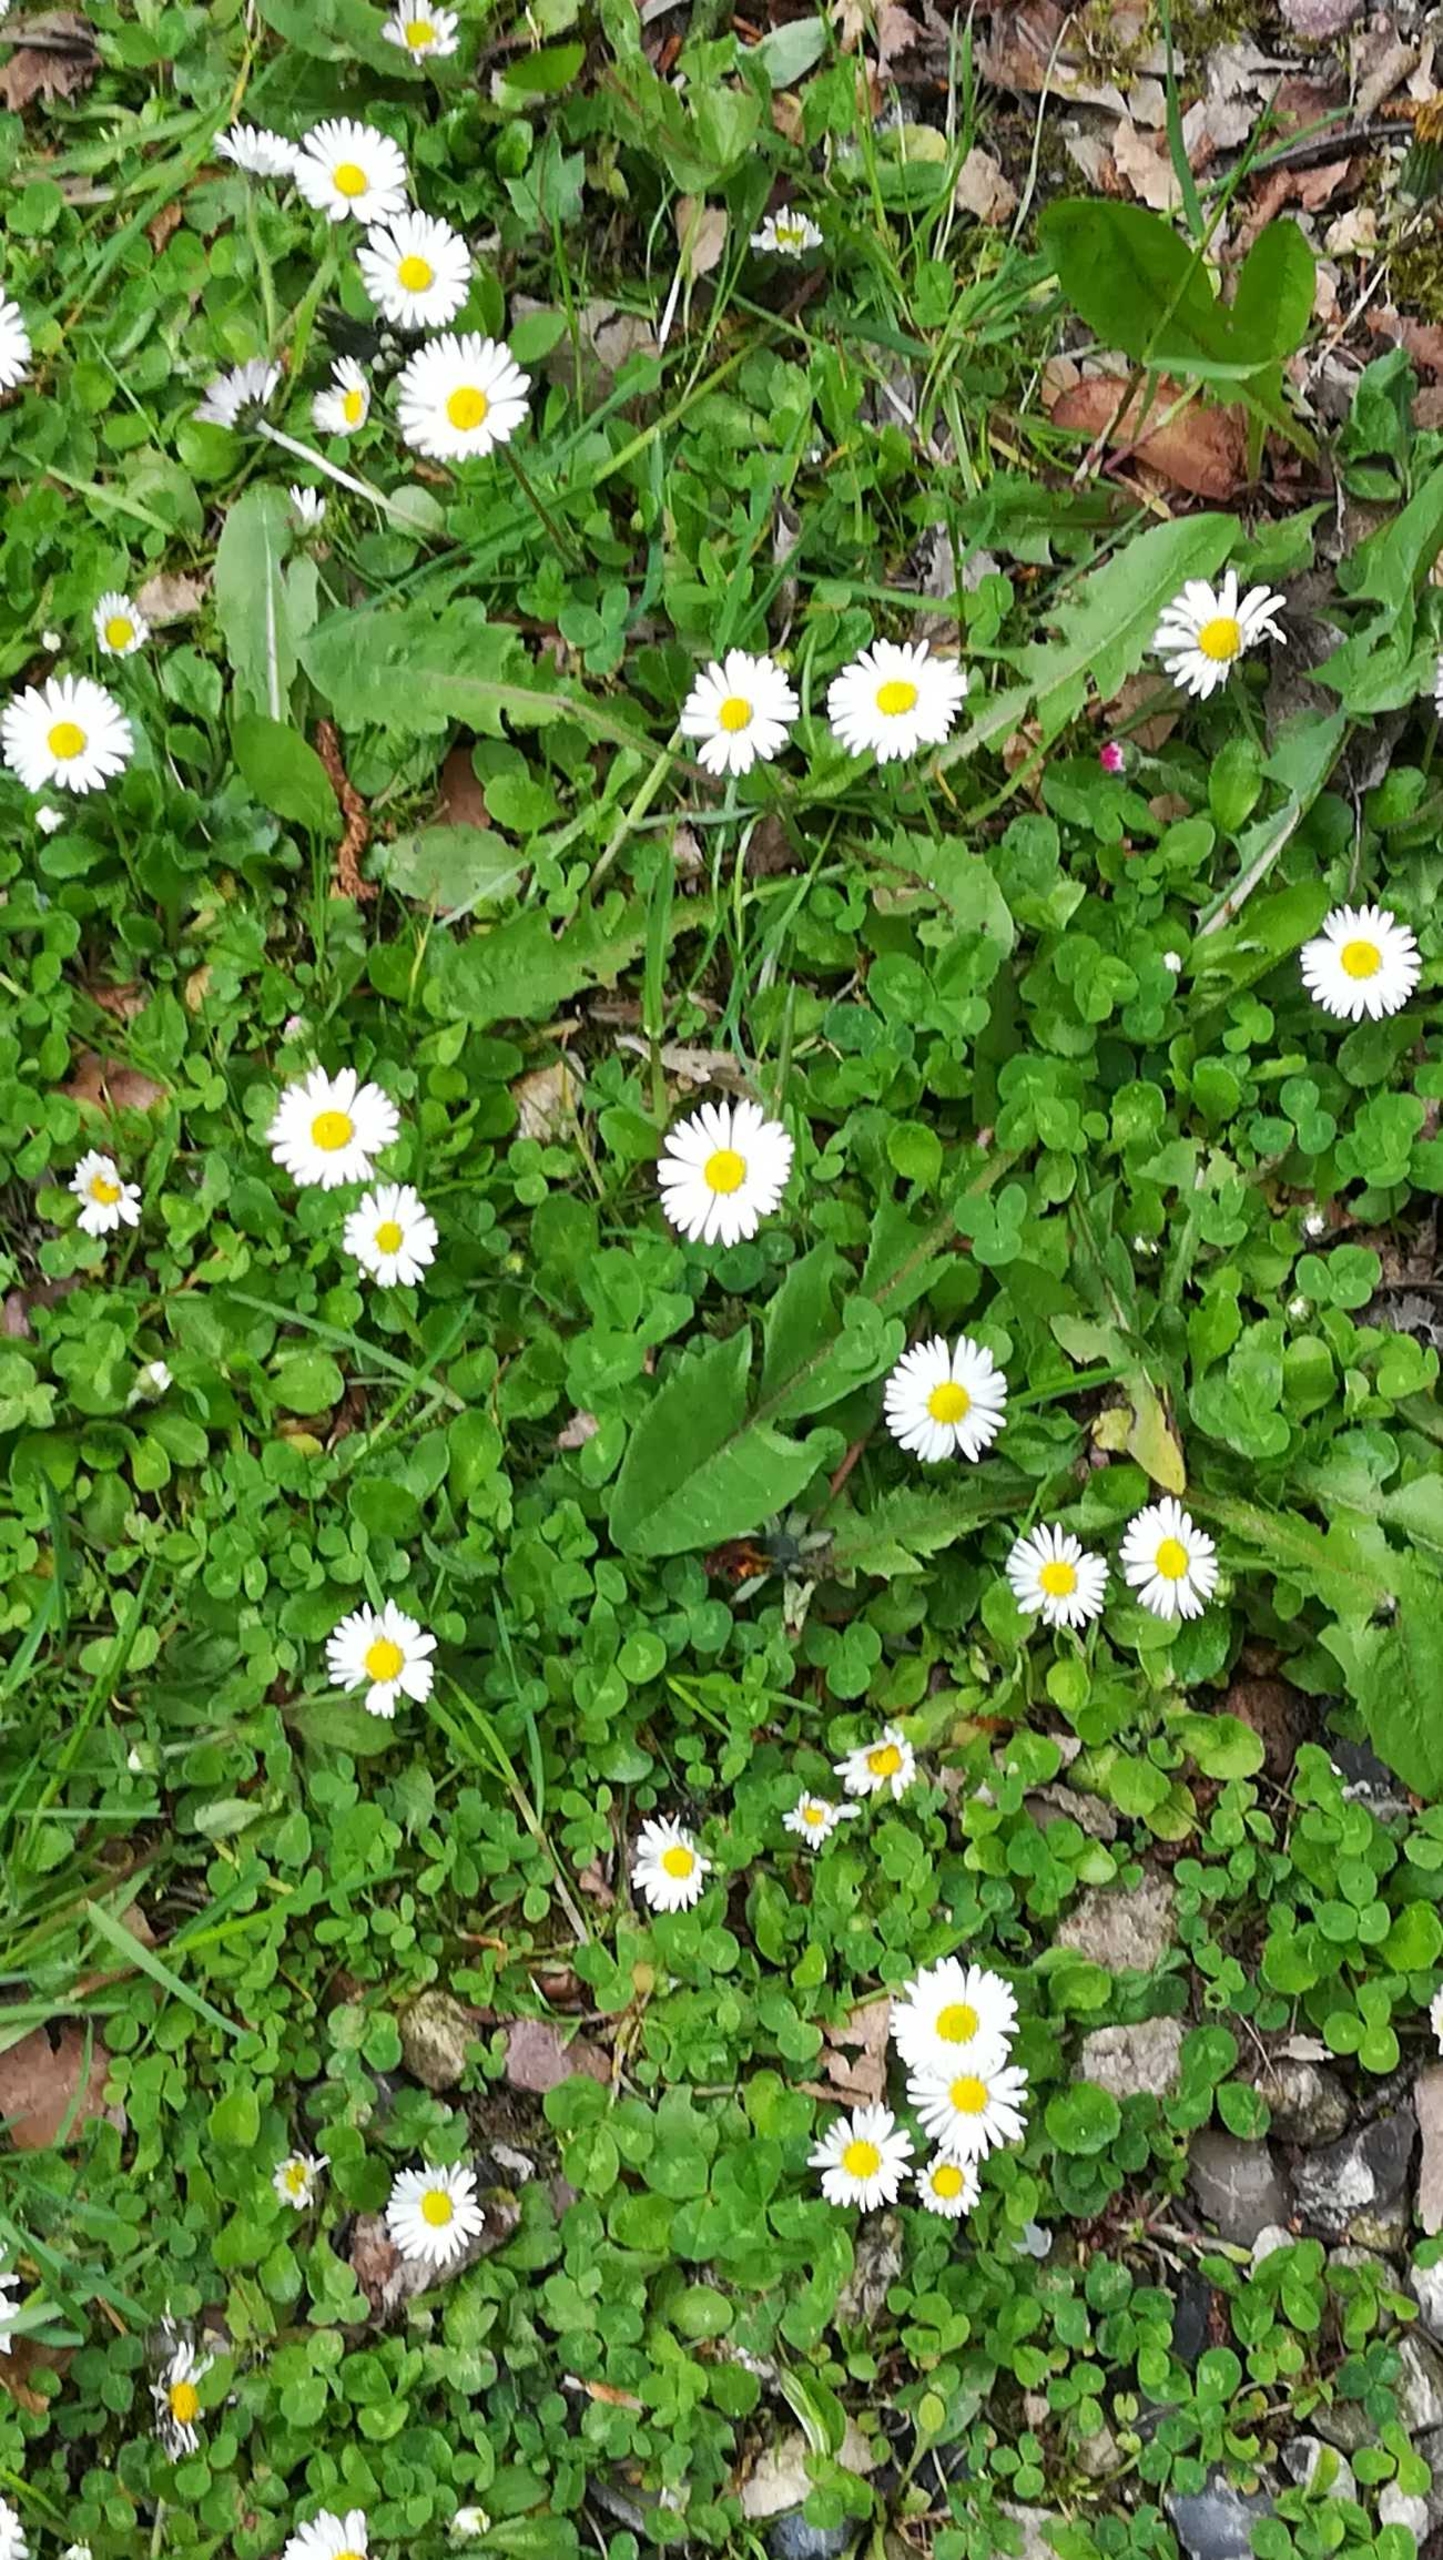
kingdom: Plantae
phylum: Tracheophyta
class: Magnoliopsida
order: Asterales
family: Asteraceae
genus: Bellis
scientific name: Bellis perennis
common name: Tusindfryd
